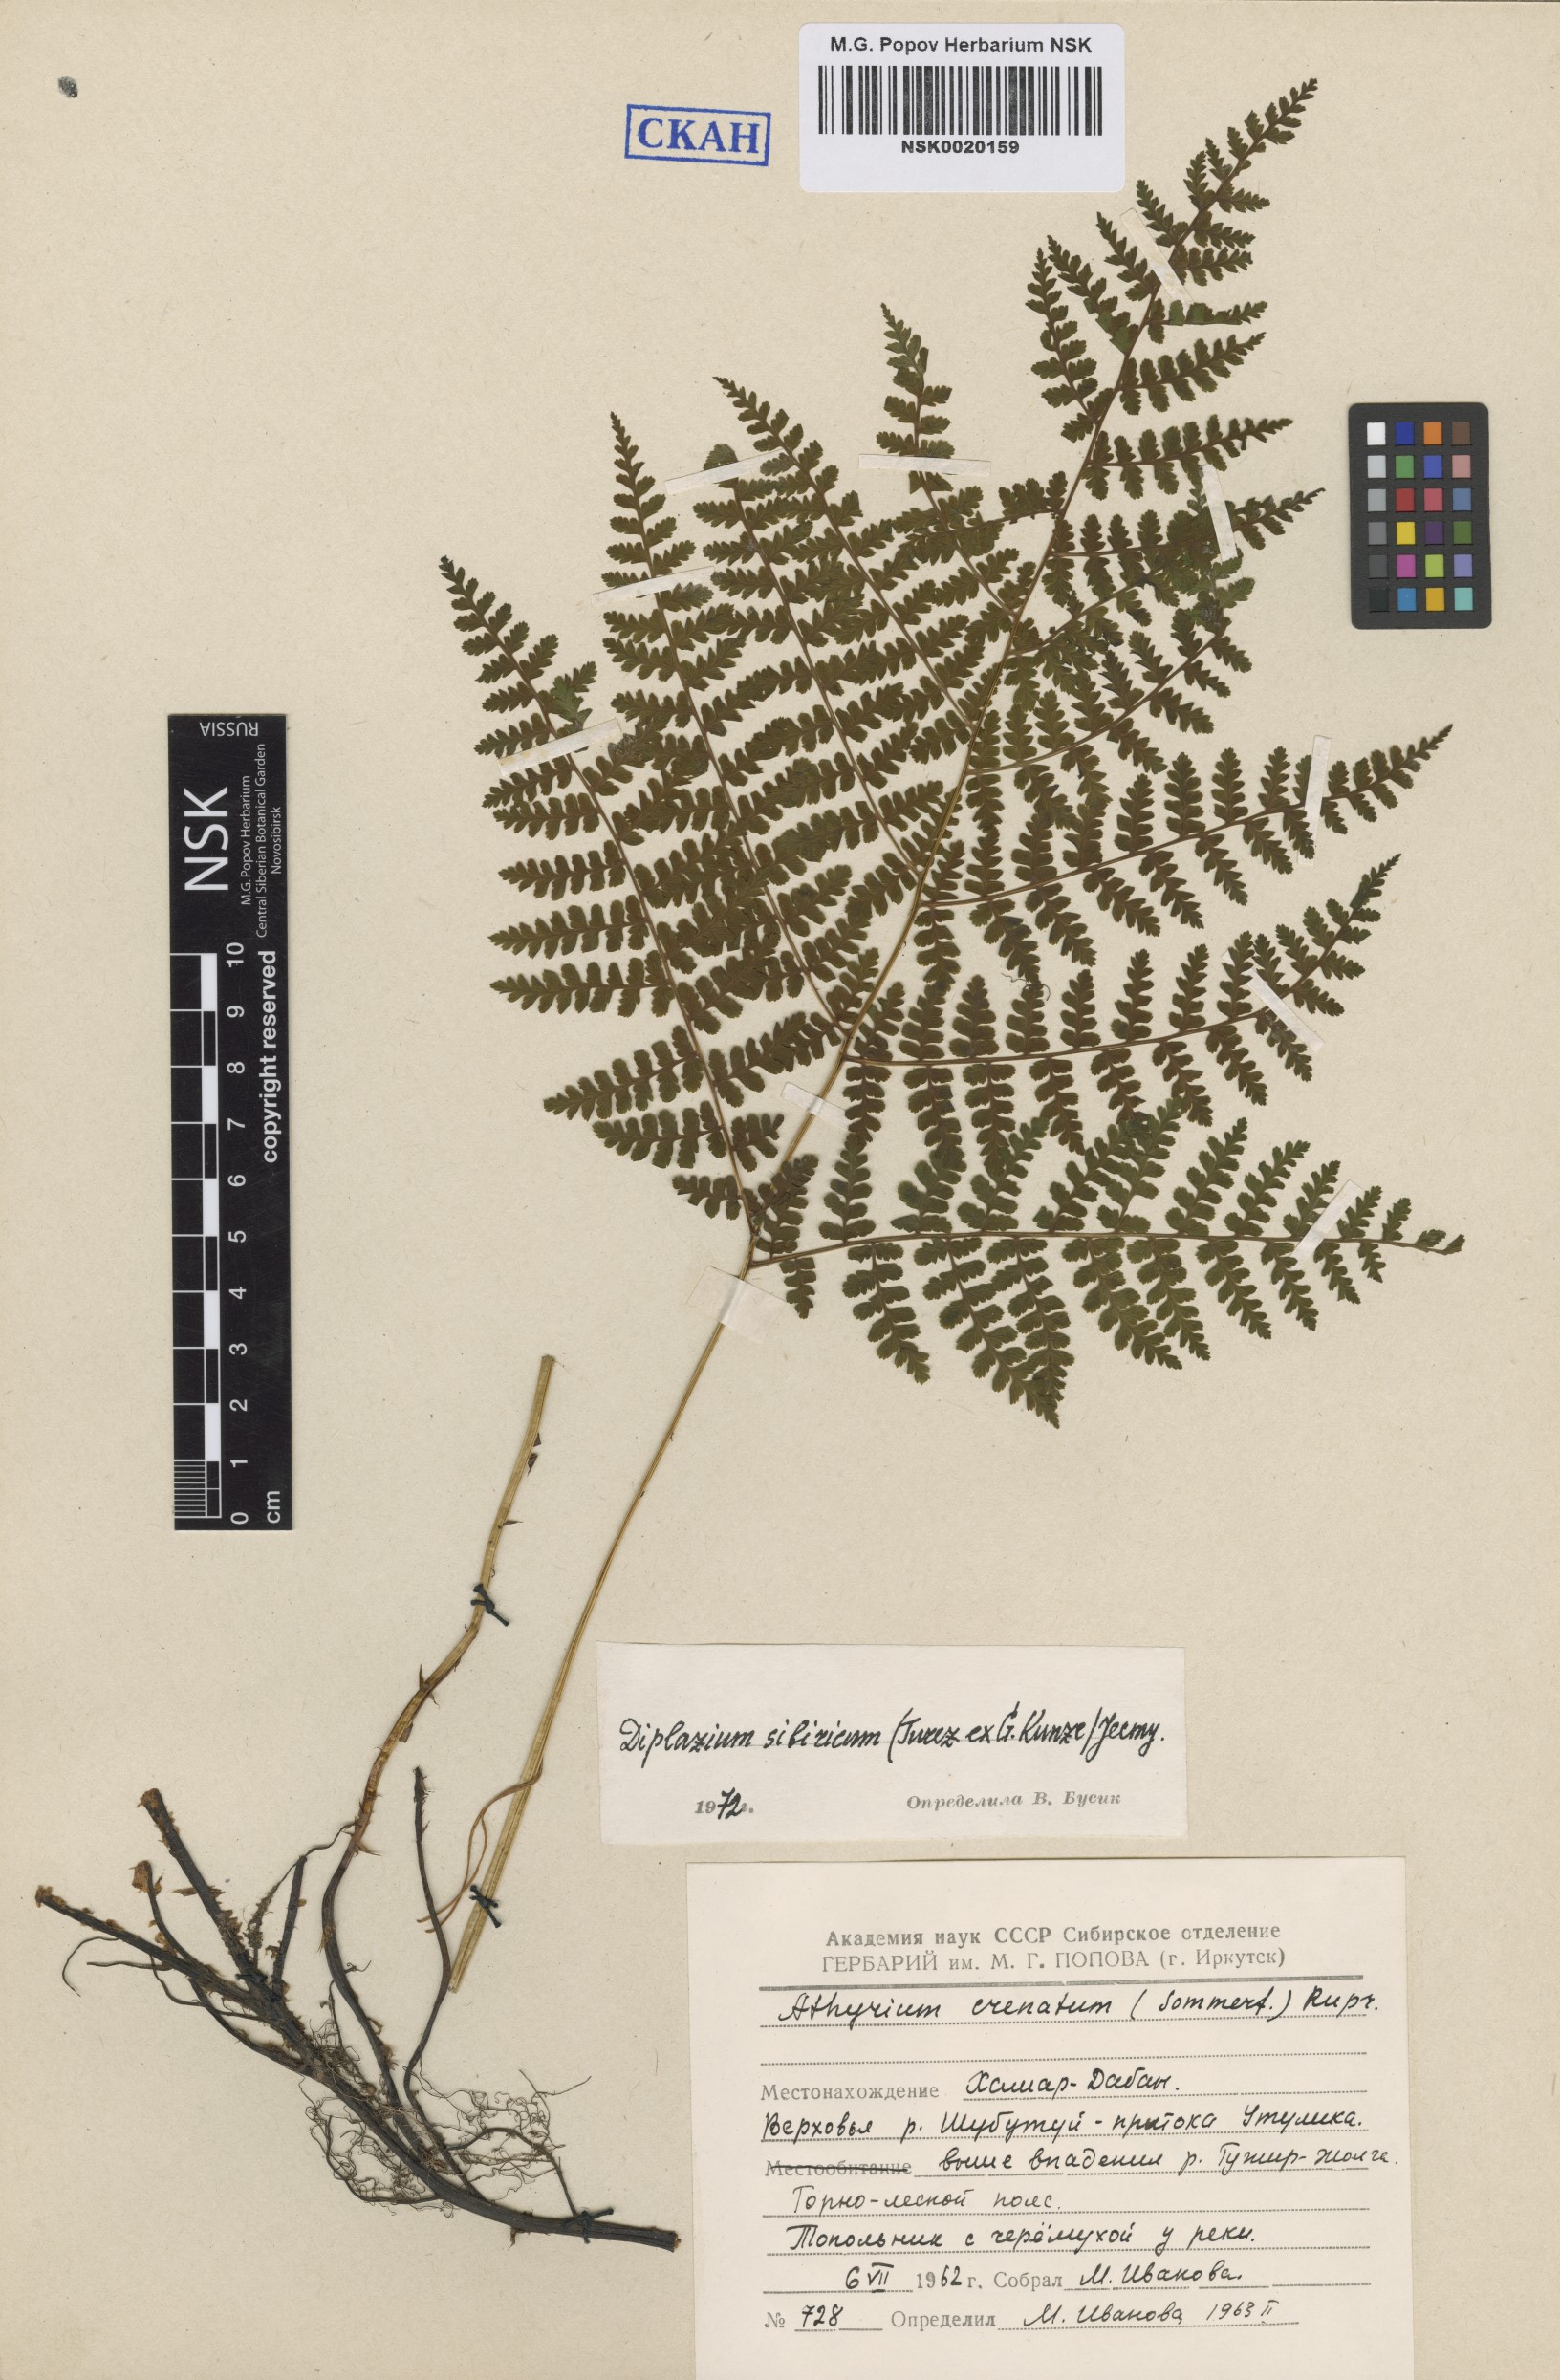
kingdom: Plantae
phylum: Tracheophyta
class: Polypodiopsida
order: Polypodiales
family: Athyriaceae
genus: Diplazium
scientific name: Diplazium sibiricum
